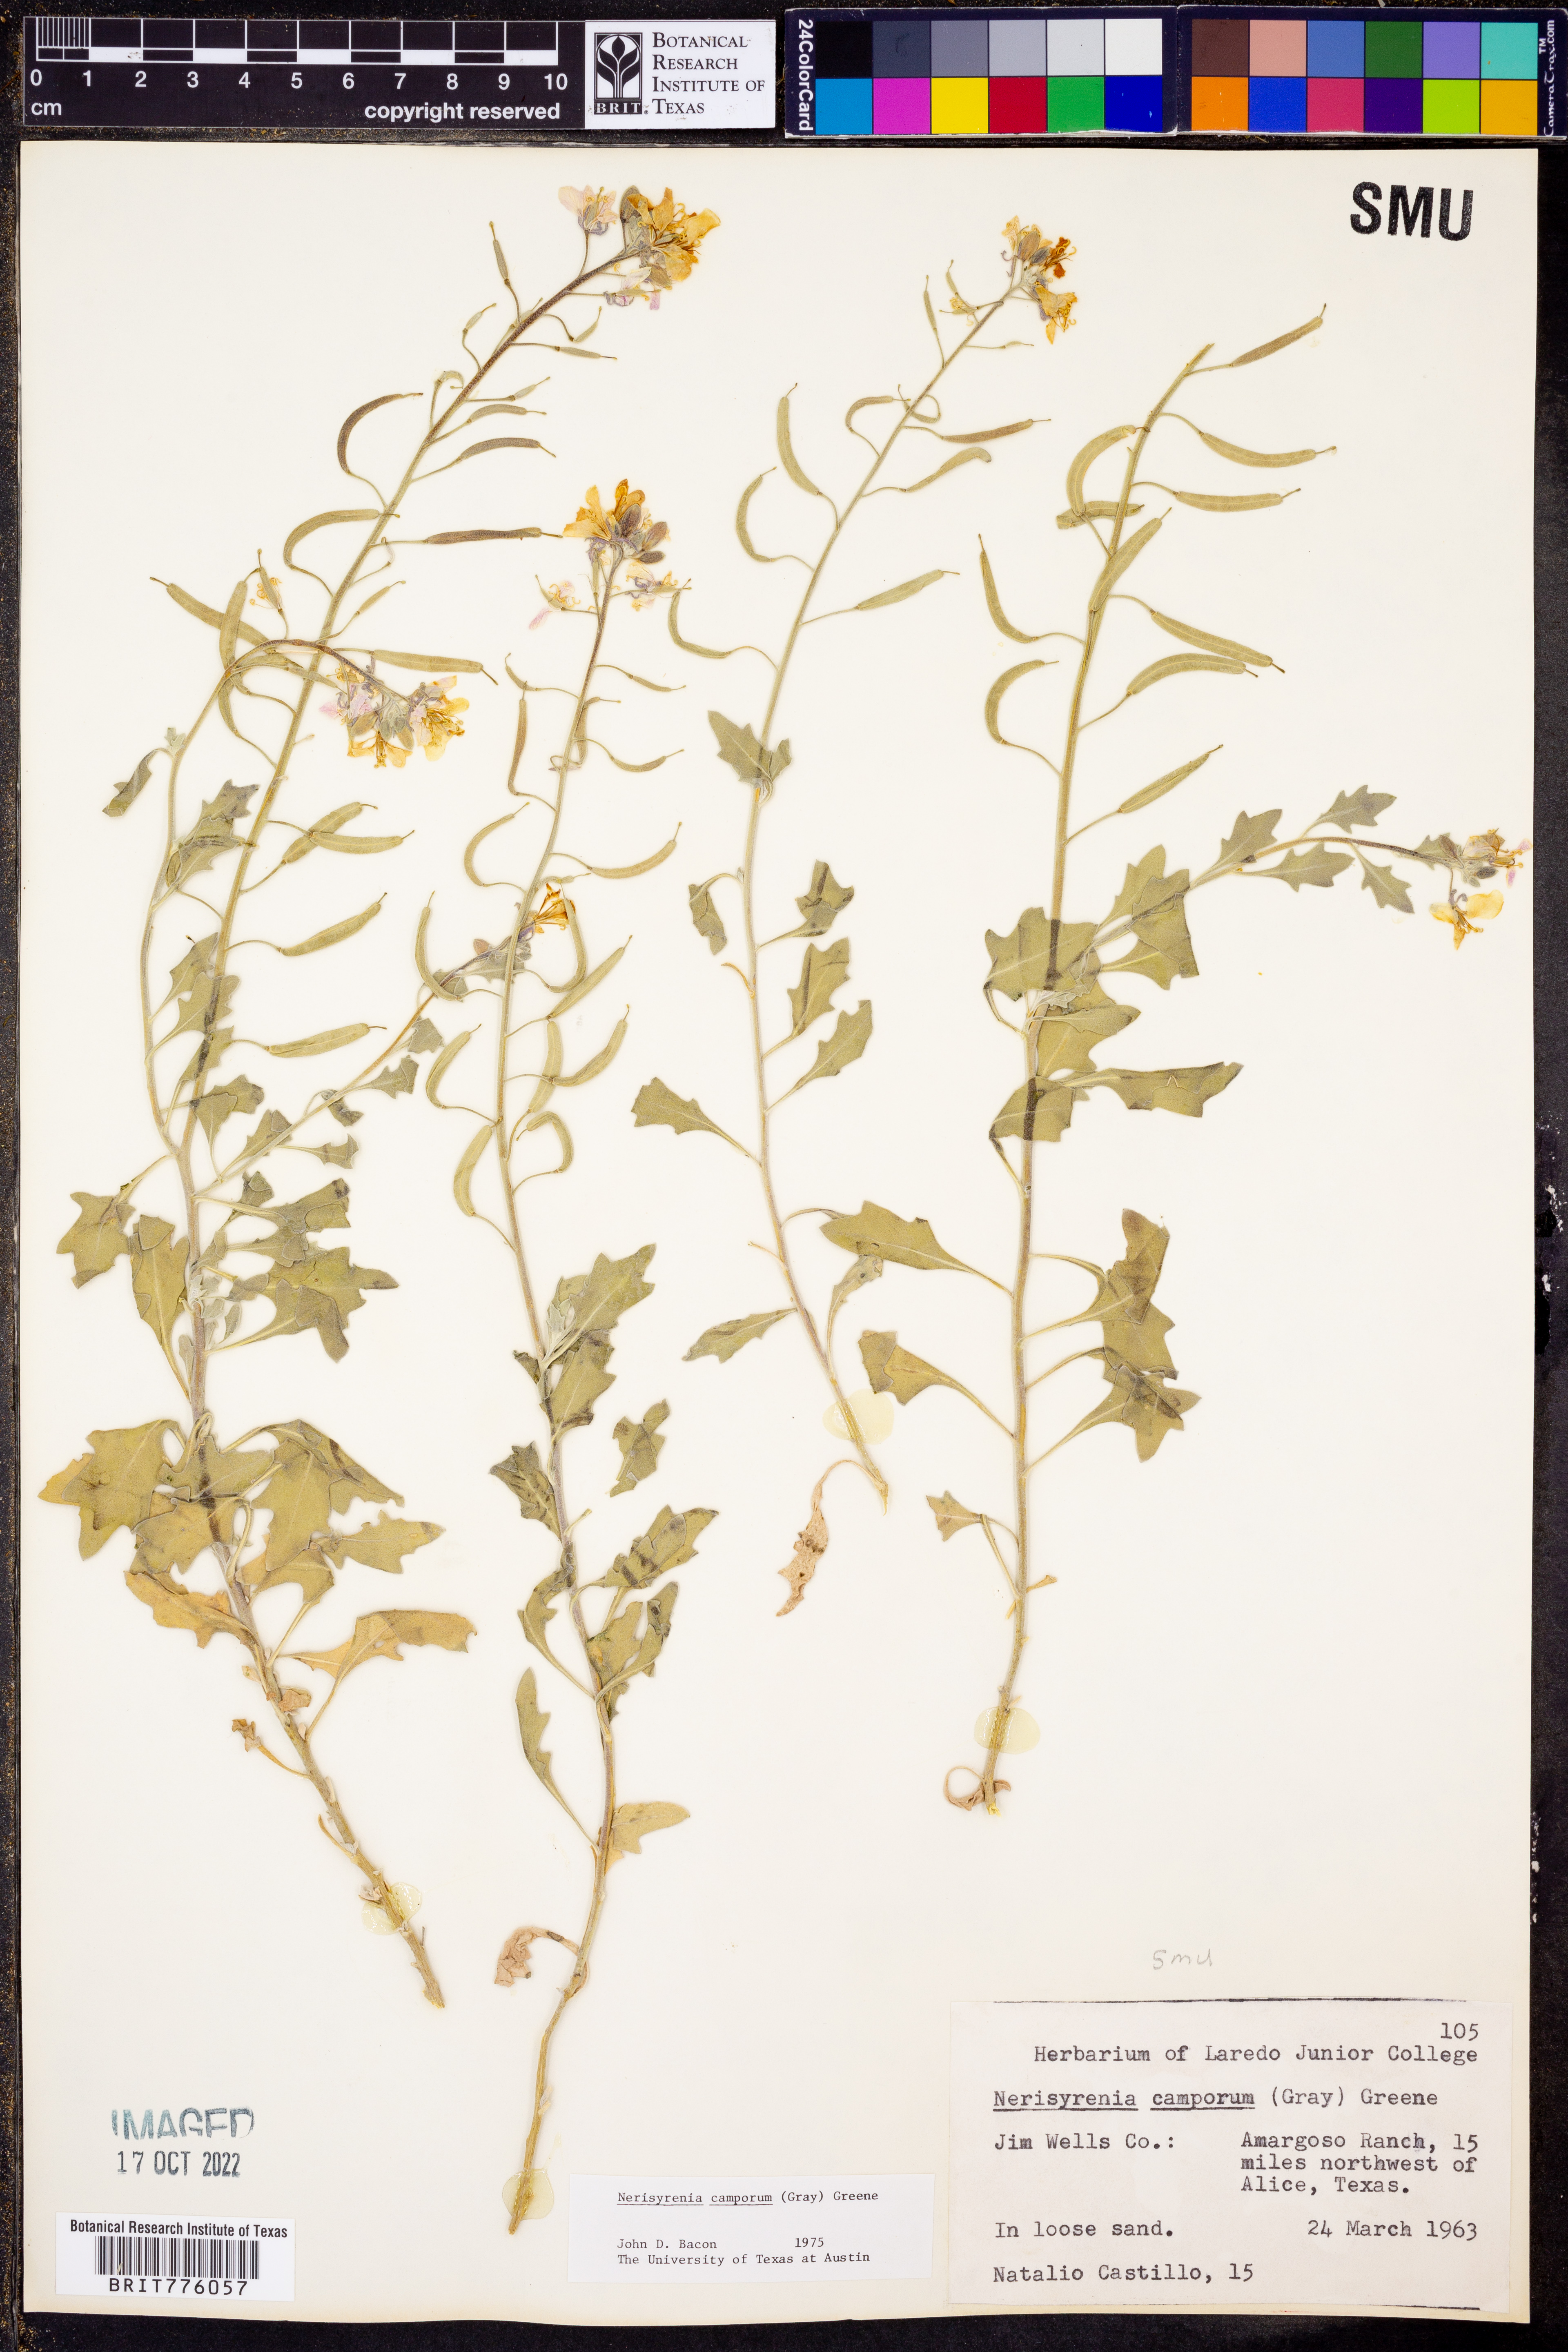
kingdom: Plantae
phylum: Tracheophyta
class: Magnoliopsida
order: Brassicales
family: Brassicaceae
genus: Nerisyrenia
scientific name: Nerisyrenia camporum
